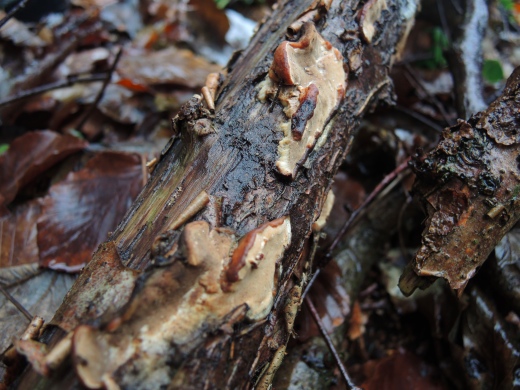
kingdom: Fungi
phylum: Basidiomycota
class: Agaricomycetes
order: Polyporales
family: Incrustoporiaceae
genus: Skeletocutis
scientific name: Skeletocutis nemoralis
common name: stor krystalporesvamp
